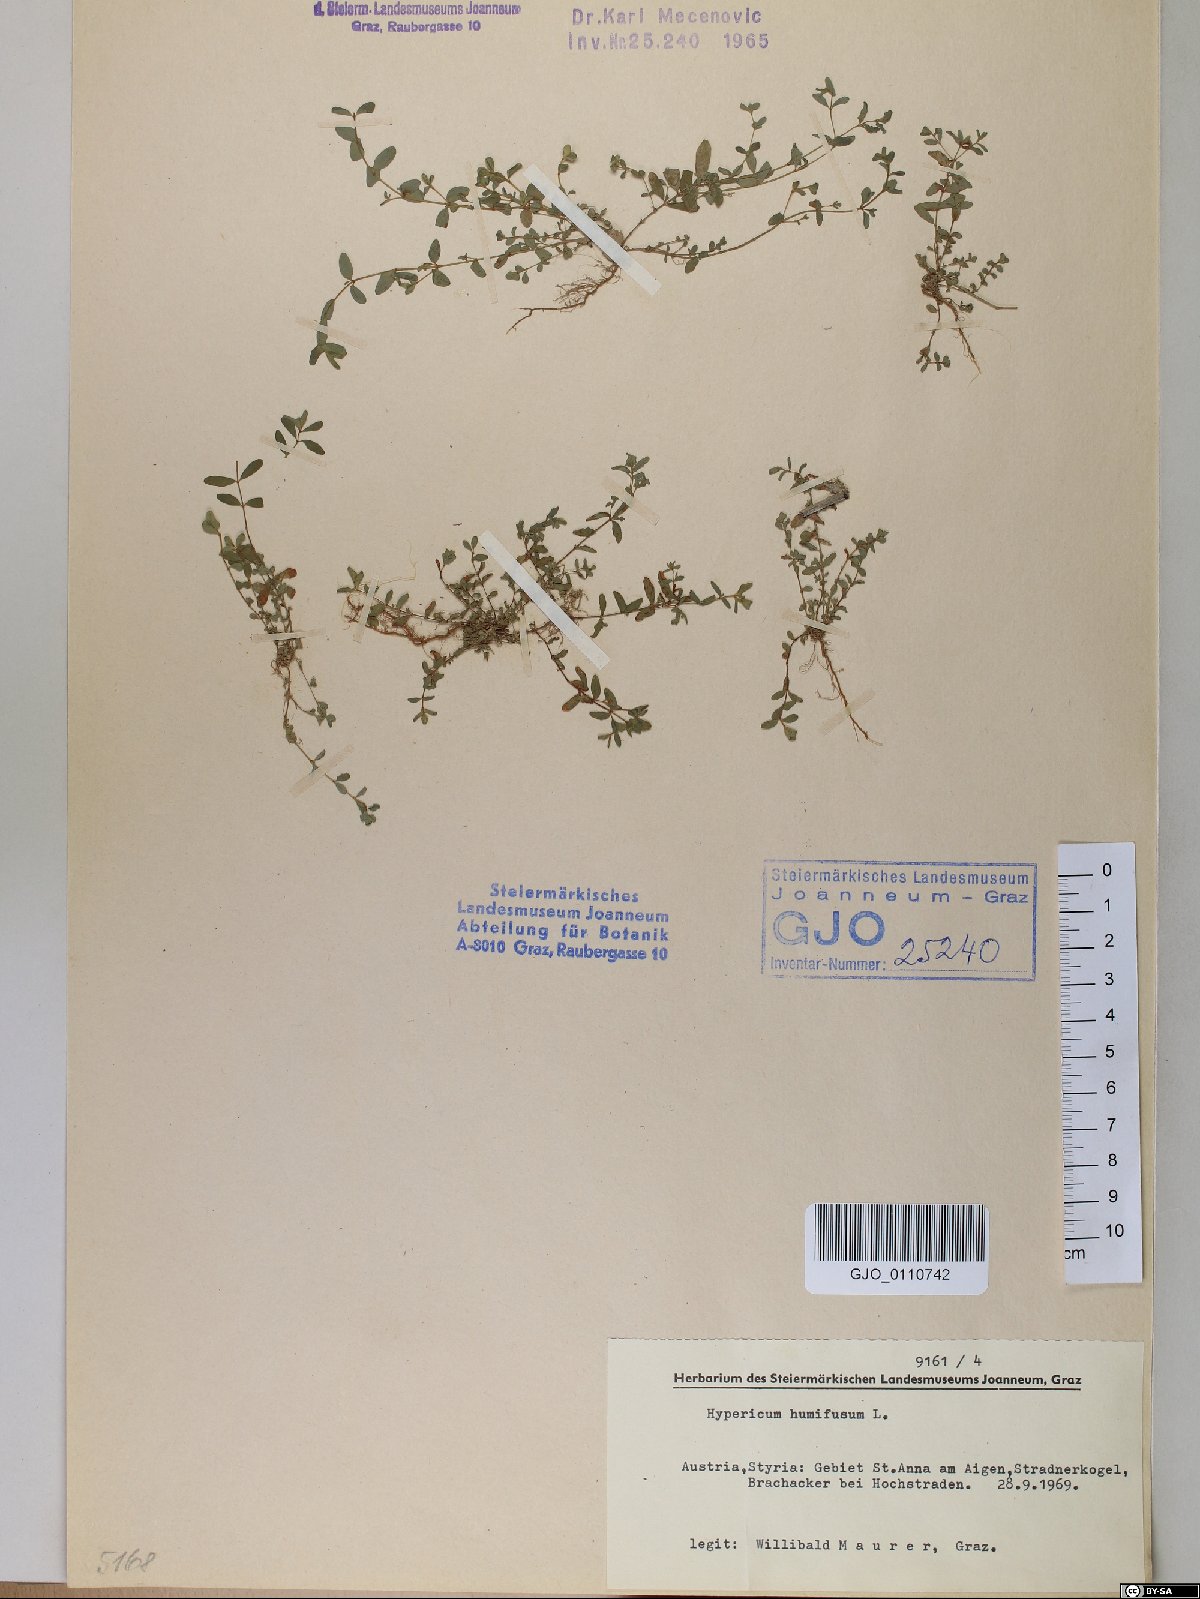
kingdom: Plantae
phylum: Tracheophyta
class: Magnoliopsida
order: Malpighiales
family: Hypericaceae
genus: Hypericum
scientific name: Hypericum humifusum
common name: Trailing st. john's-wort
